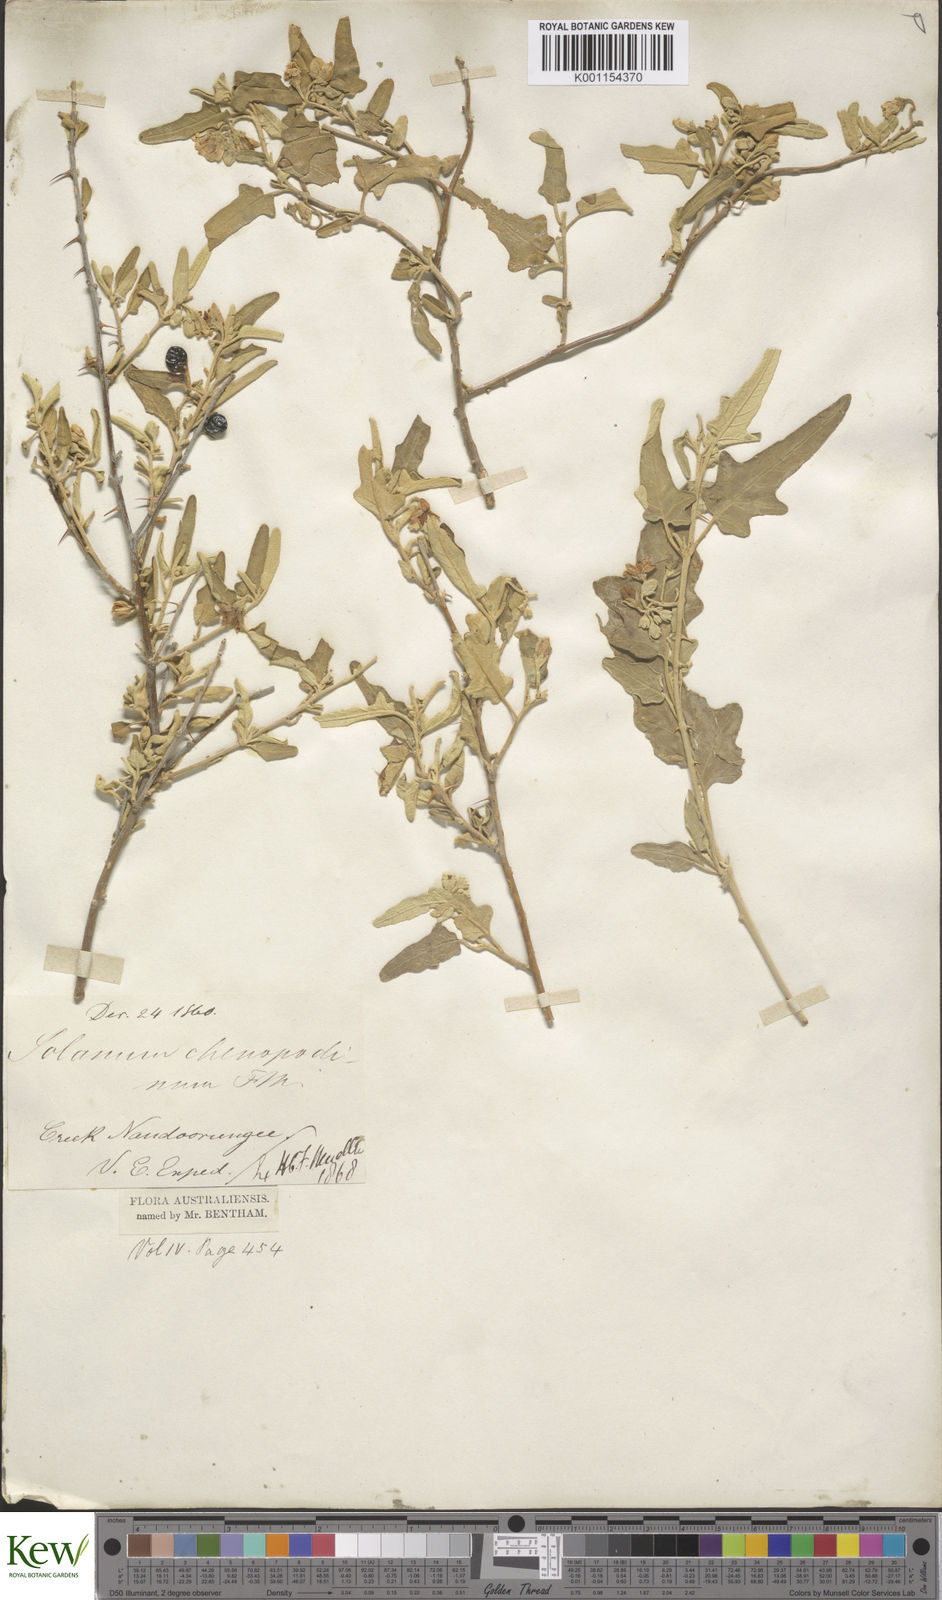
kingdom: Plantae
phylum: Tracheophyta
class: Magnoliopsida
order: Solanales
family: Solanaceae
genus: Solanum
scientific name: Solanum chenopodinum
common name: Goosefoot potato-bush
